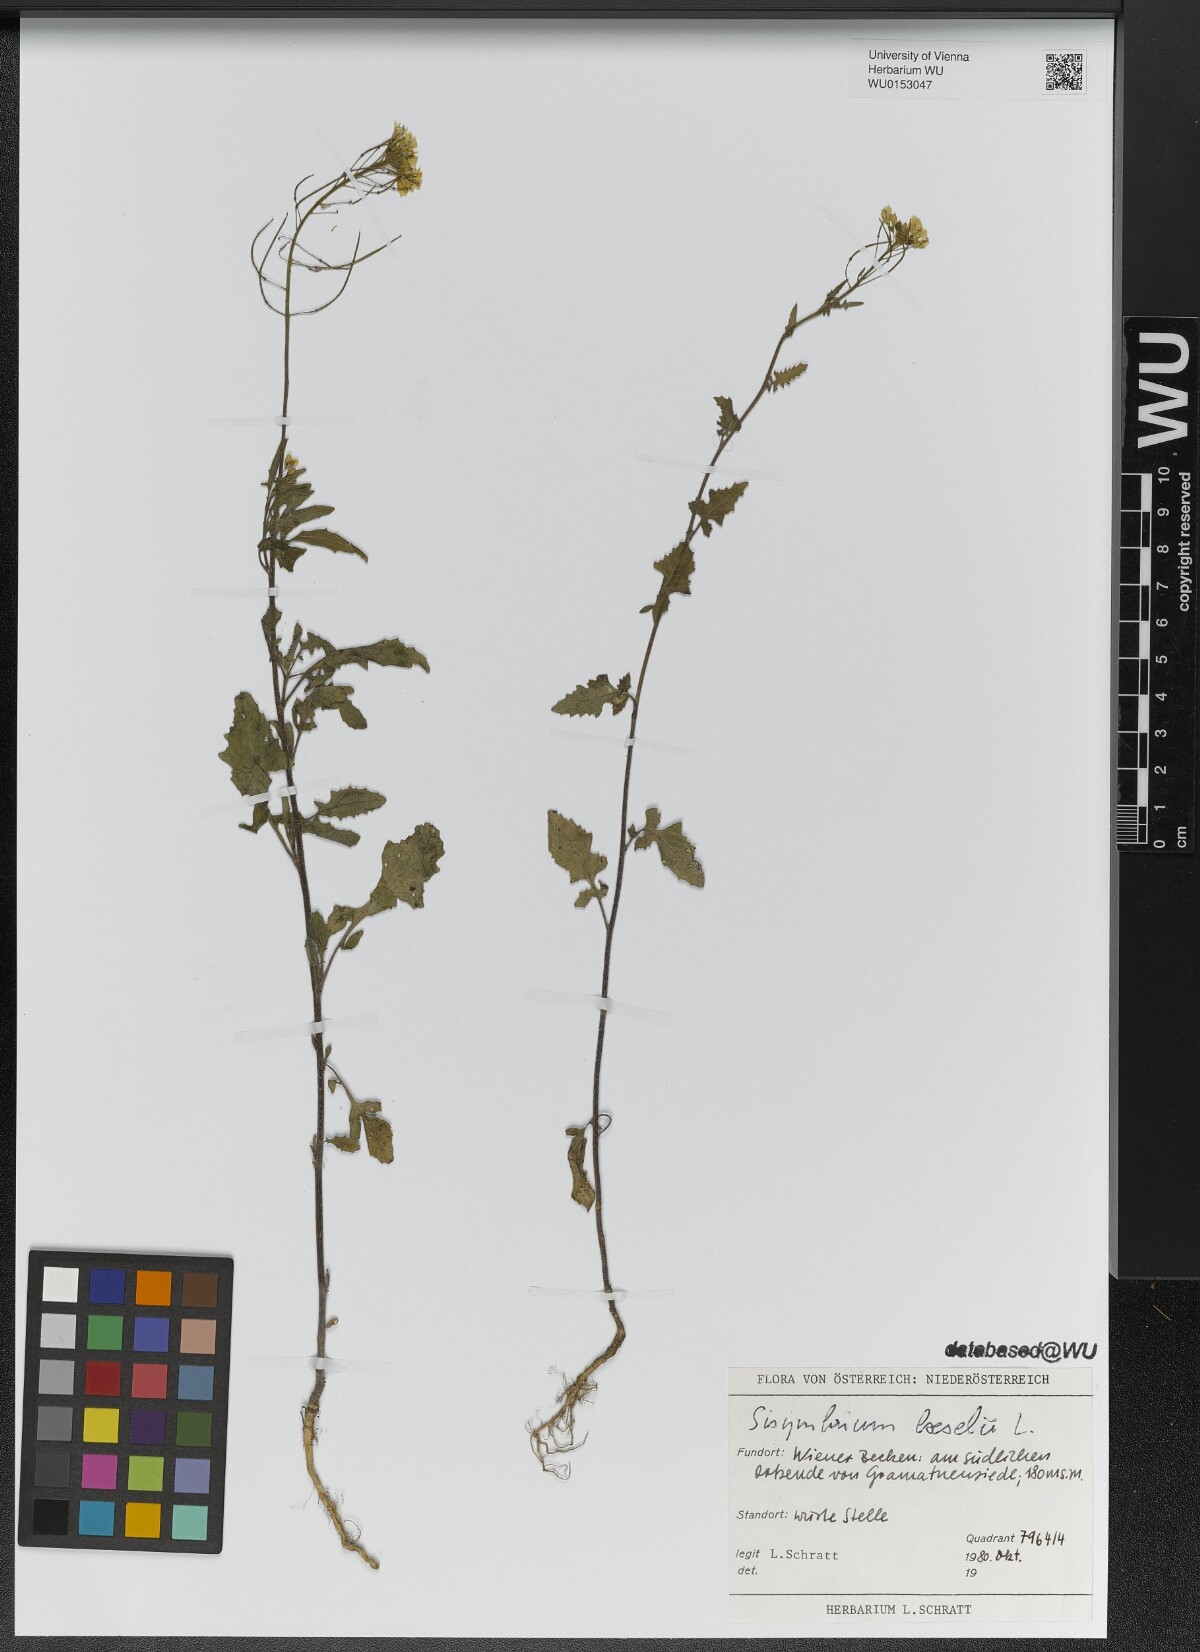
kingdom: Plantae
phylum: Tracheophyta
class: Magnoliopsida
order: Brassicales
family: Brassicaceae
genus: Sisymbrium
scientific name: Sisymbrium loeselii
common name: False london-rocket
